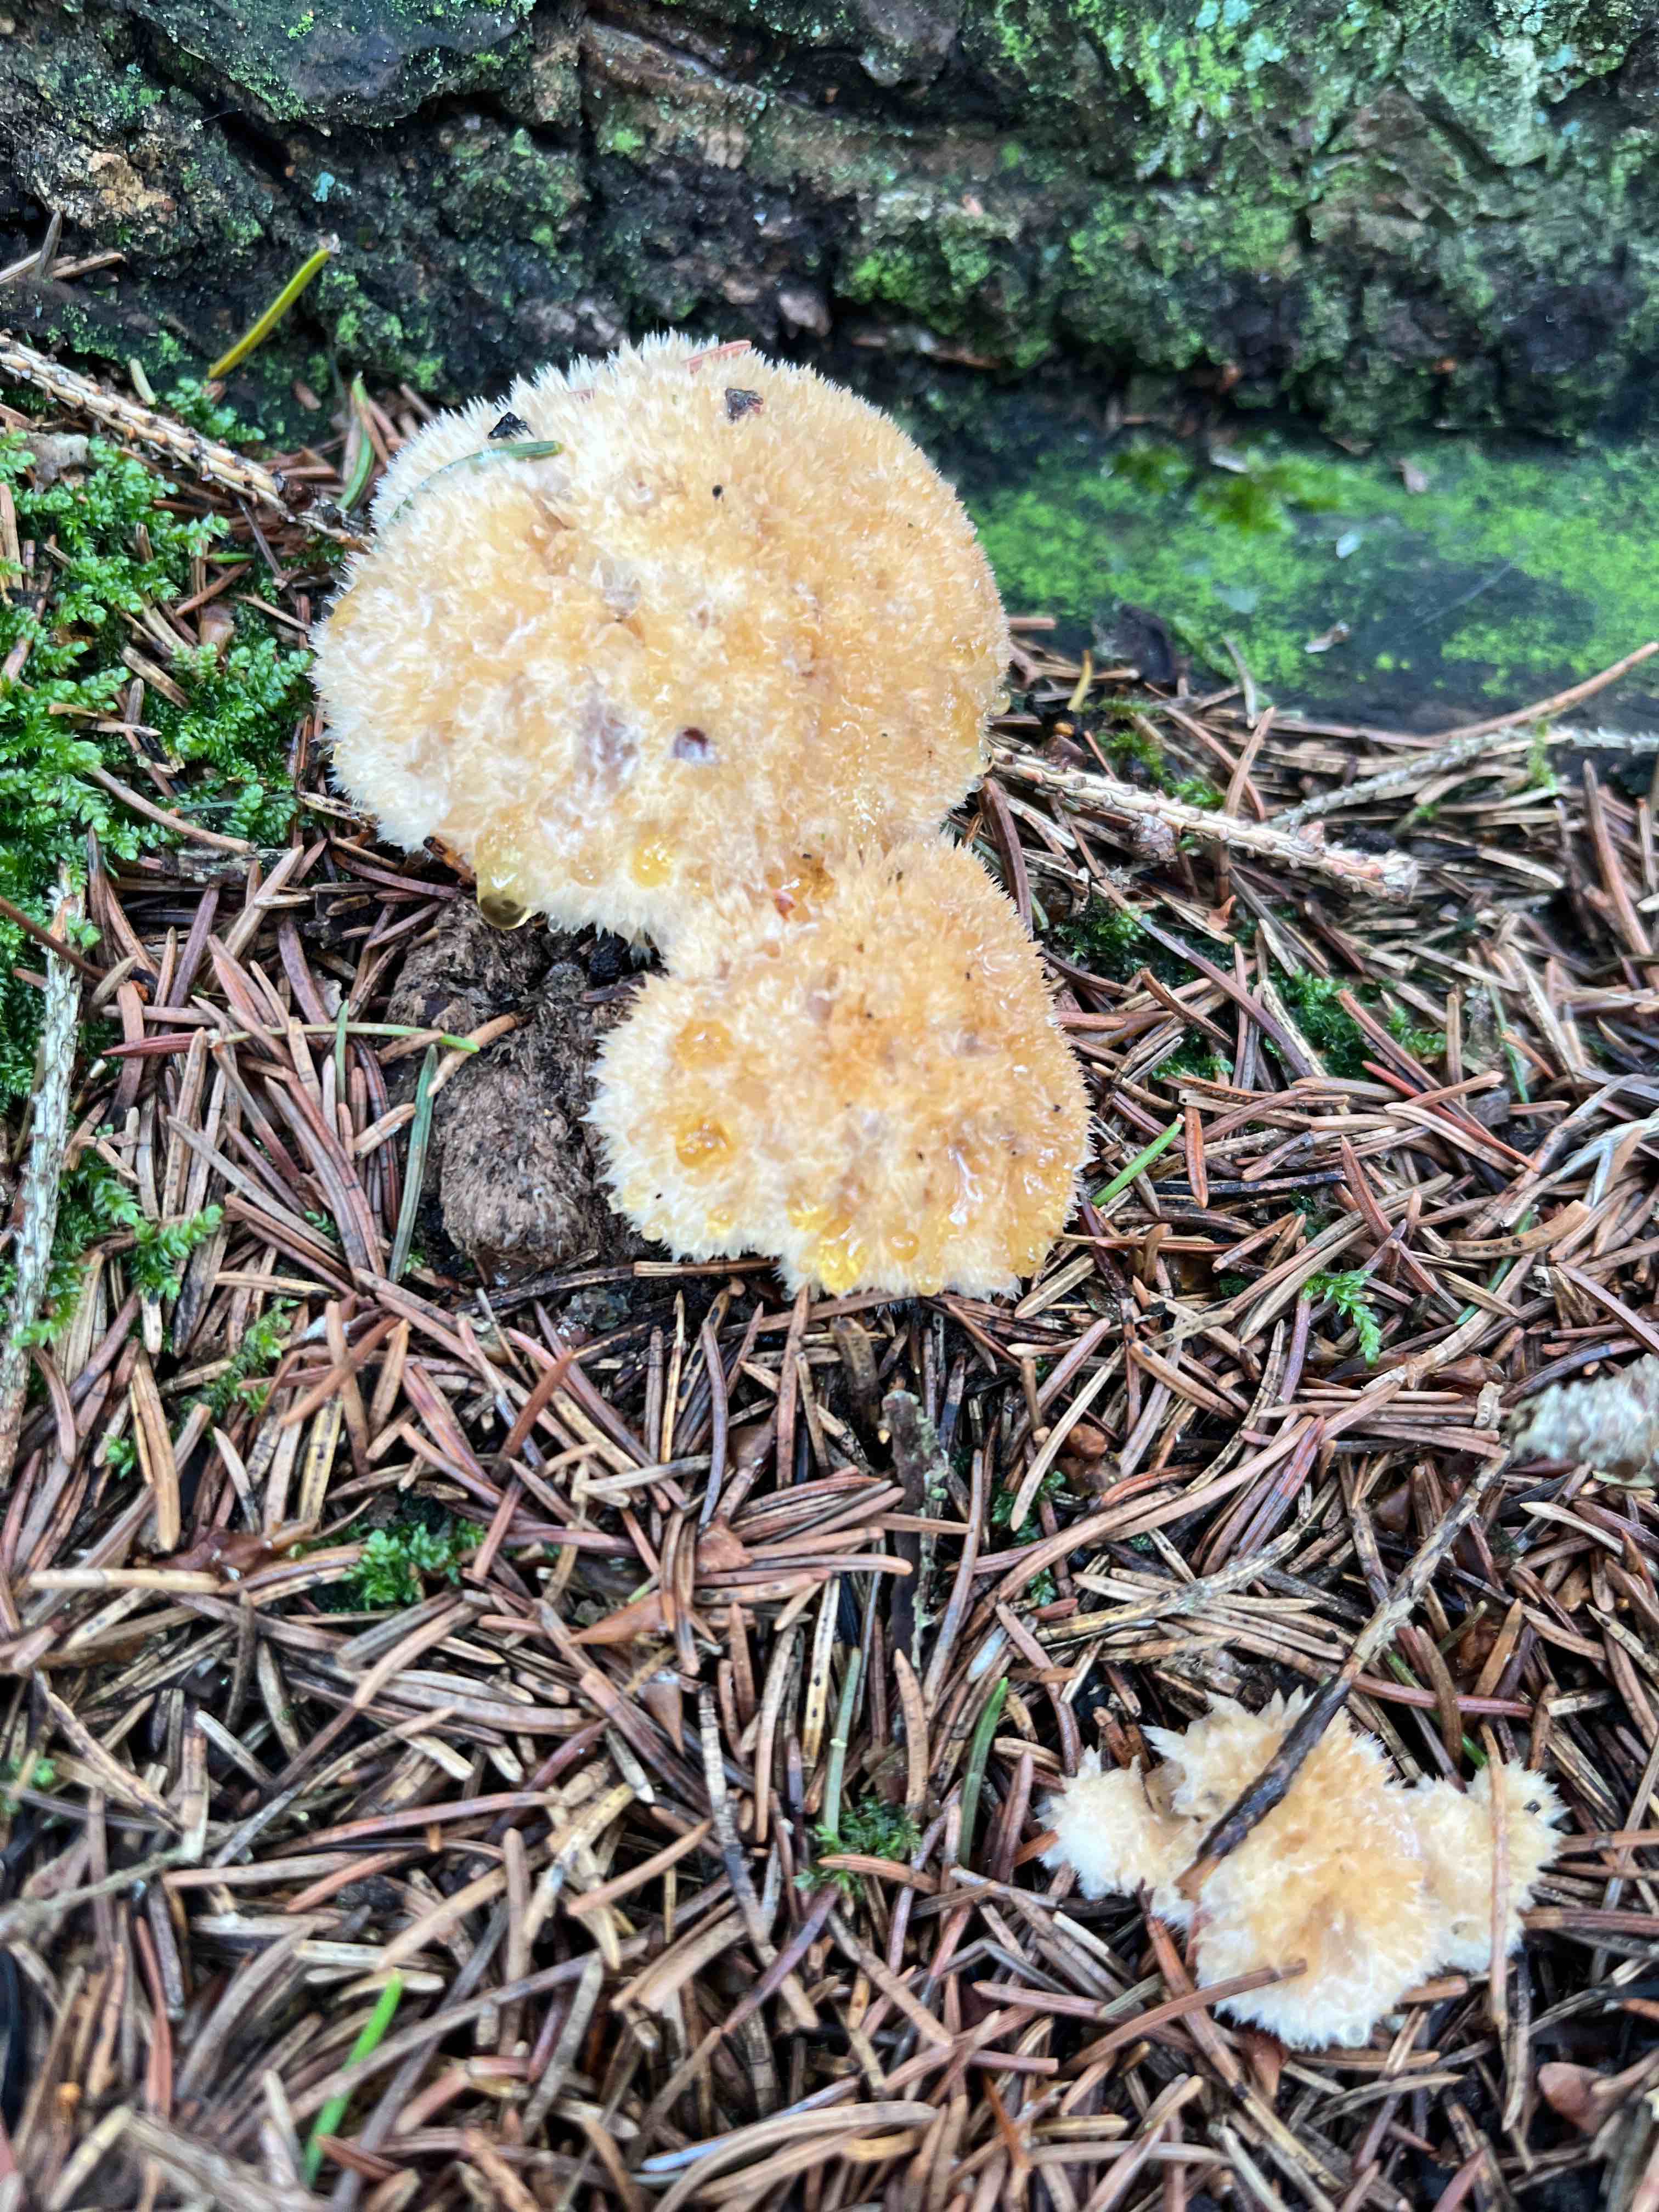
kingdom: Fungi
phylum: Basidiomycota
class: Agaricomycetes
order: Polyporales
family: Dacryobolaceae
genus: Postia
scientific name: Postia ptychogaster
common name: støvende kødporesvamp
